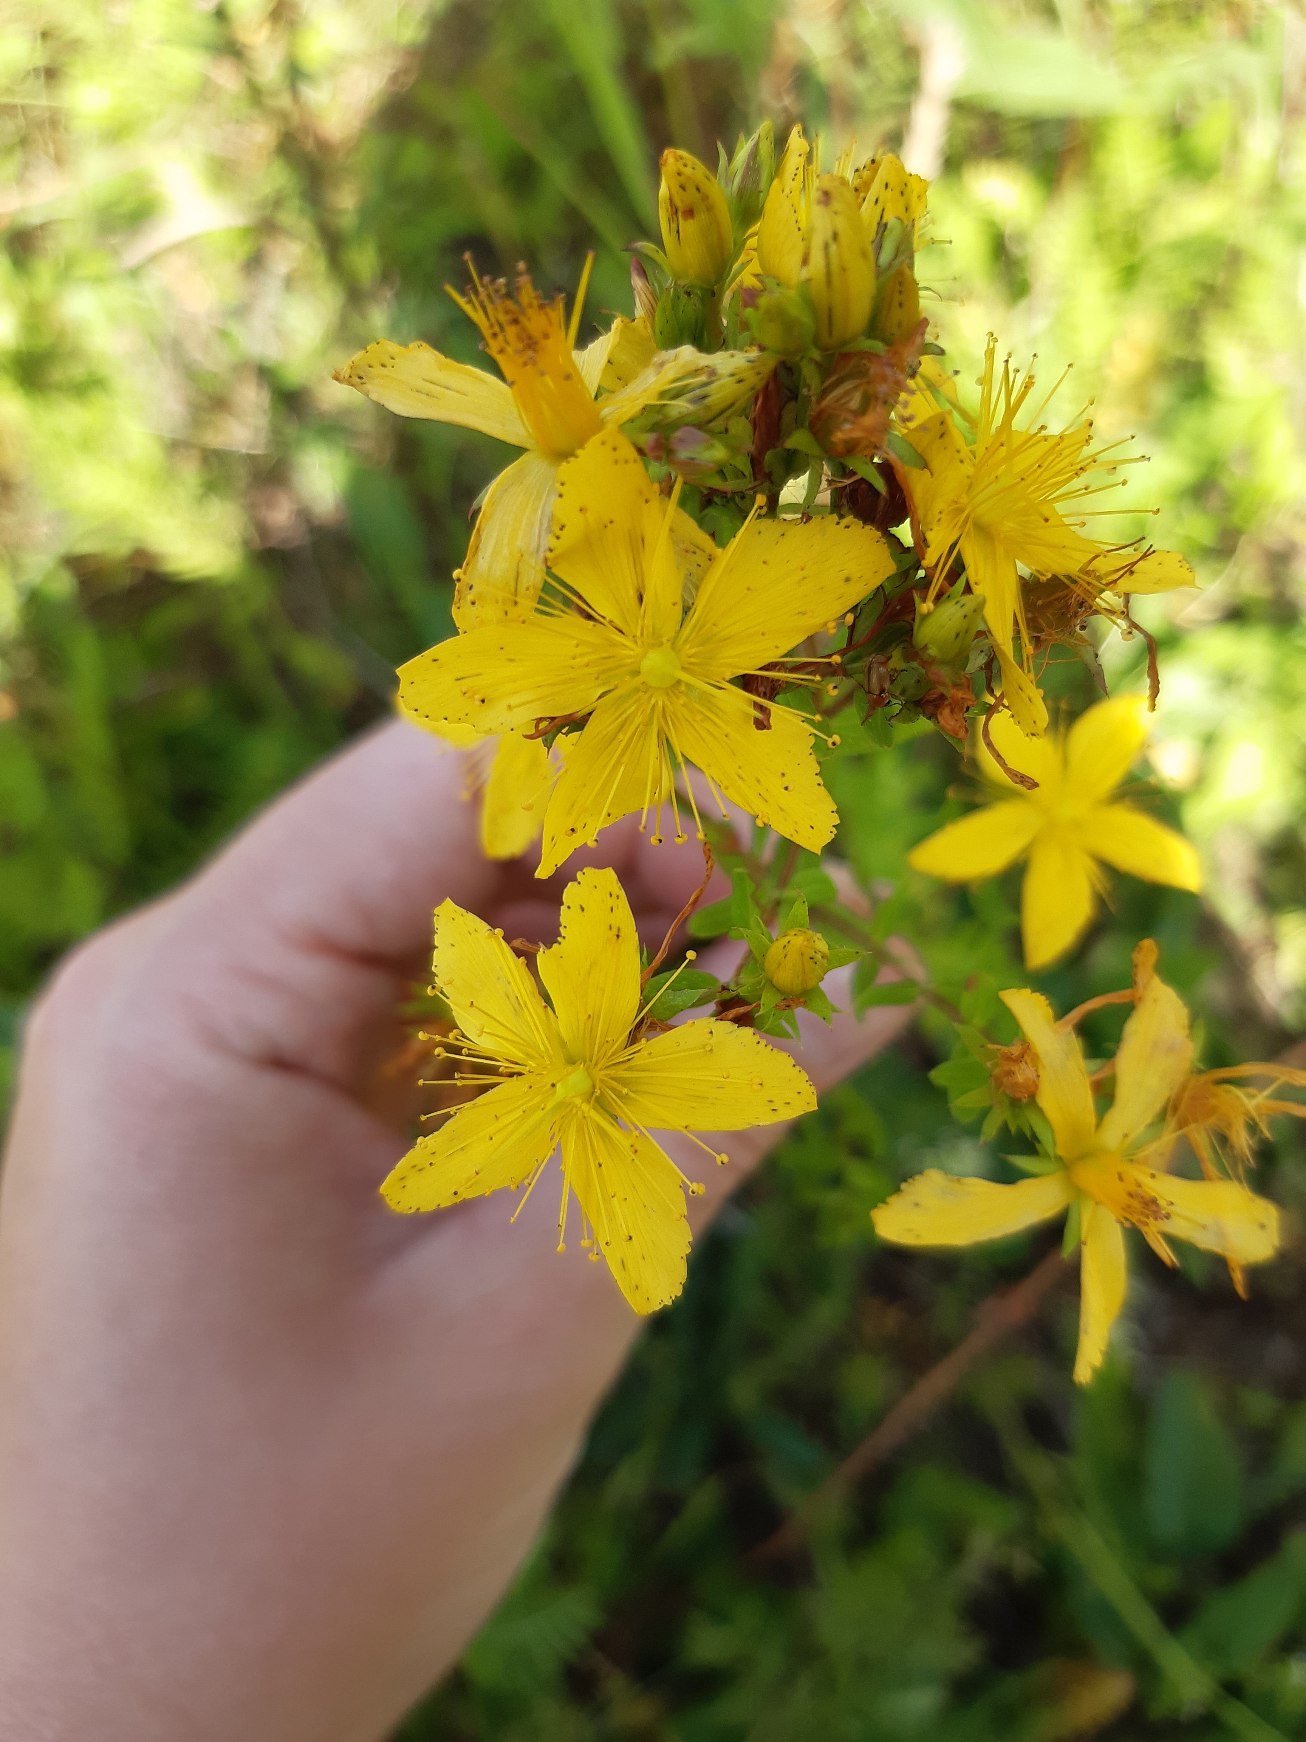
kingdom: Plantae
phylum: Tracheophyta
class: Magnoliopsida
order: Malpighiales
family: Hypericaceae
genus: Hypericum
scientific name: Hypericum perforatum
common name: Prikbladet perikon
